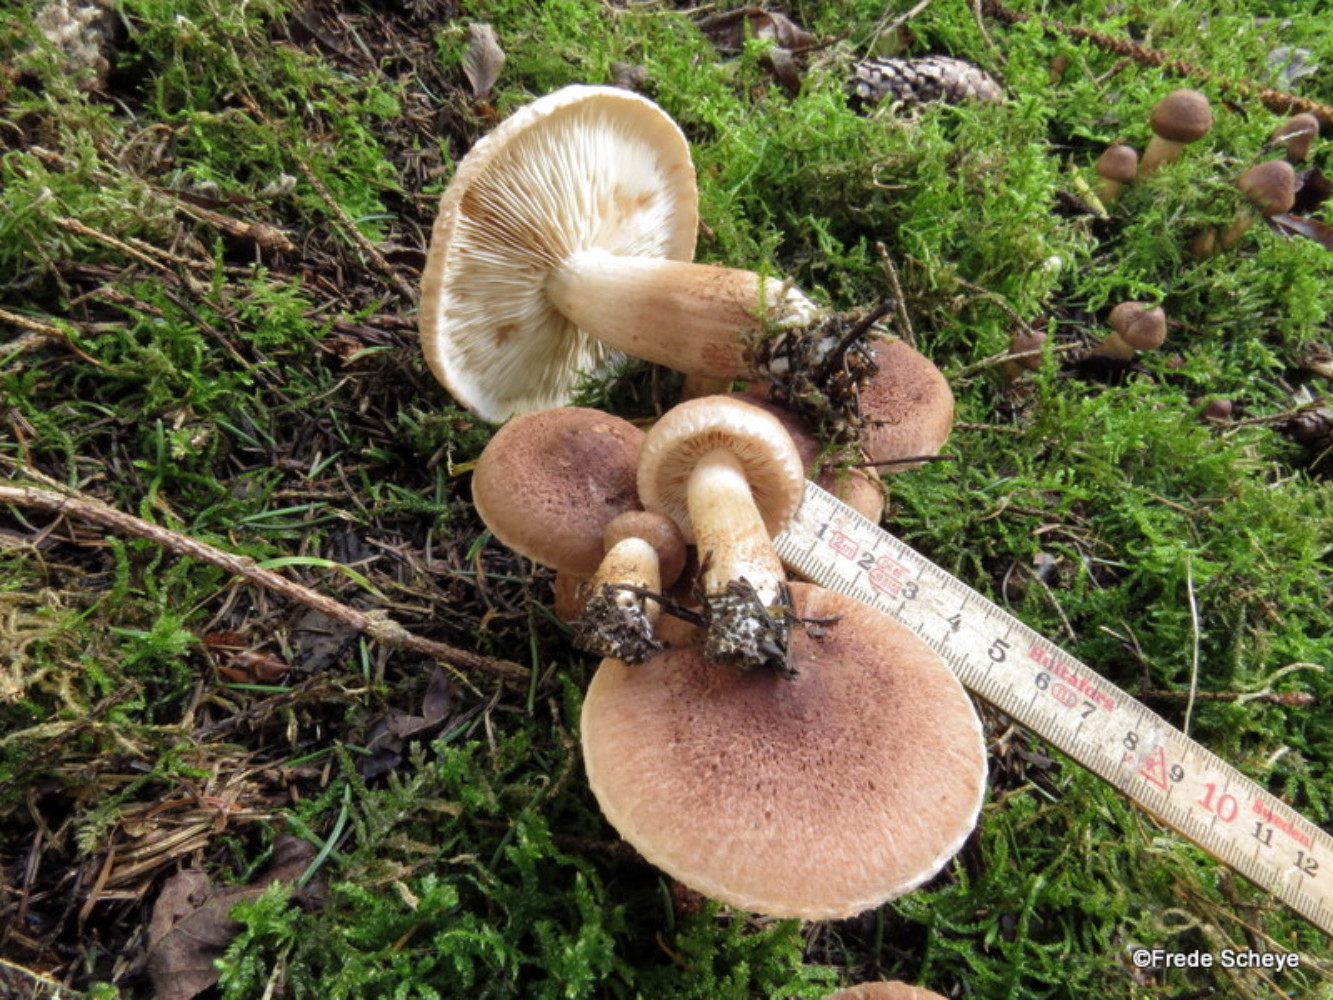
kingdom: Fungi
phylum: Basidiomycota
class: Agaricomycetes
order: Agaricales
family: Tricholomataceae
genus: Tricholoma
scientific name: Tricholoma vaccinum
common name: ko-ridderhat
